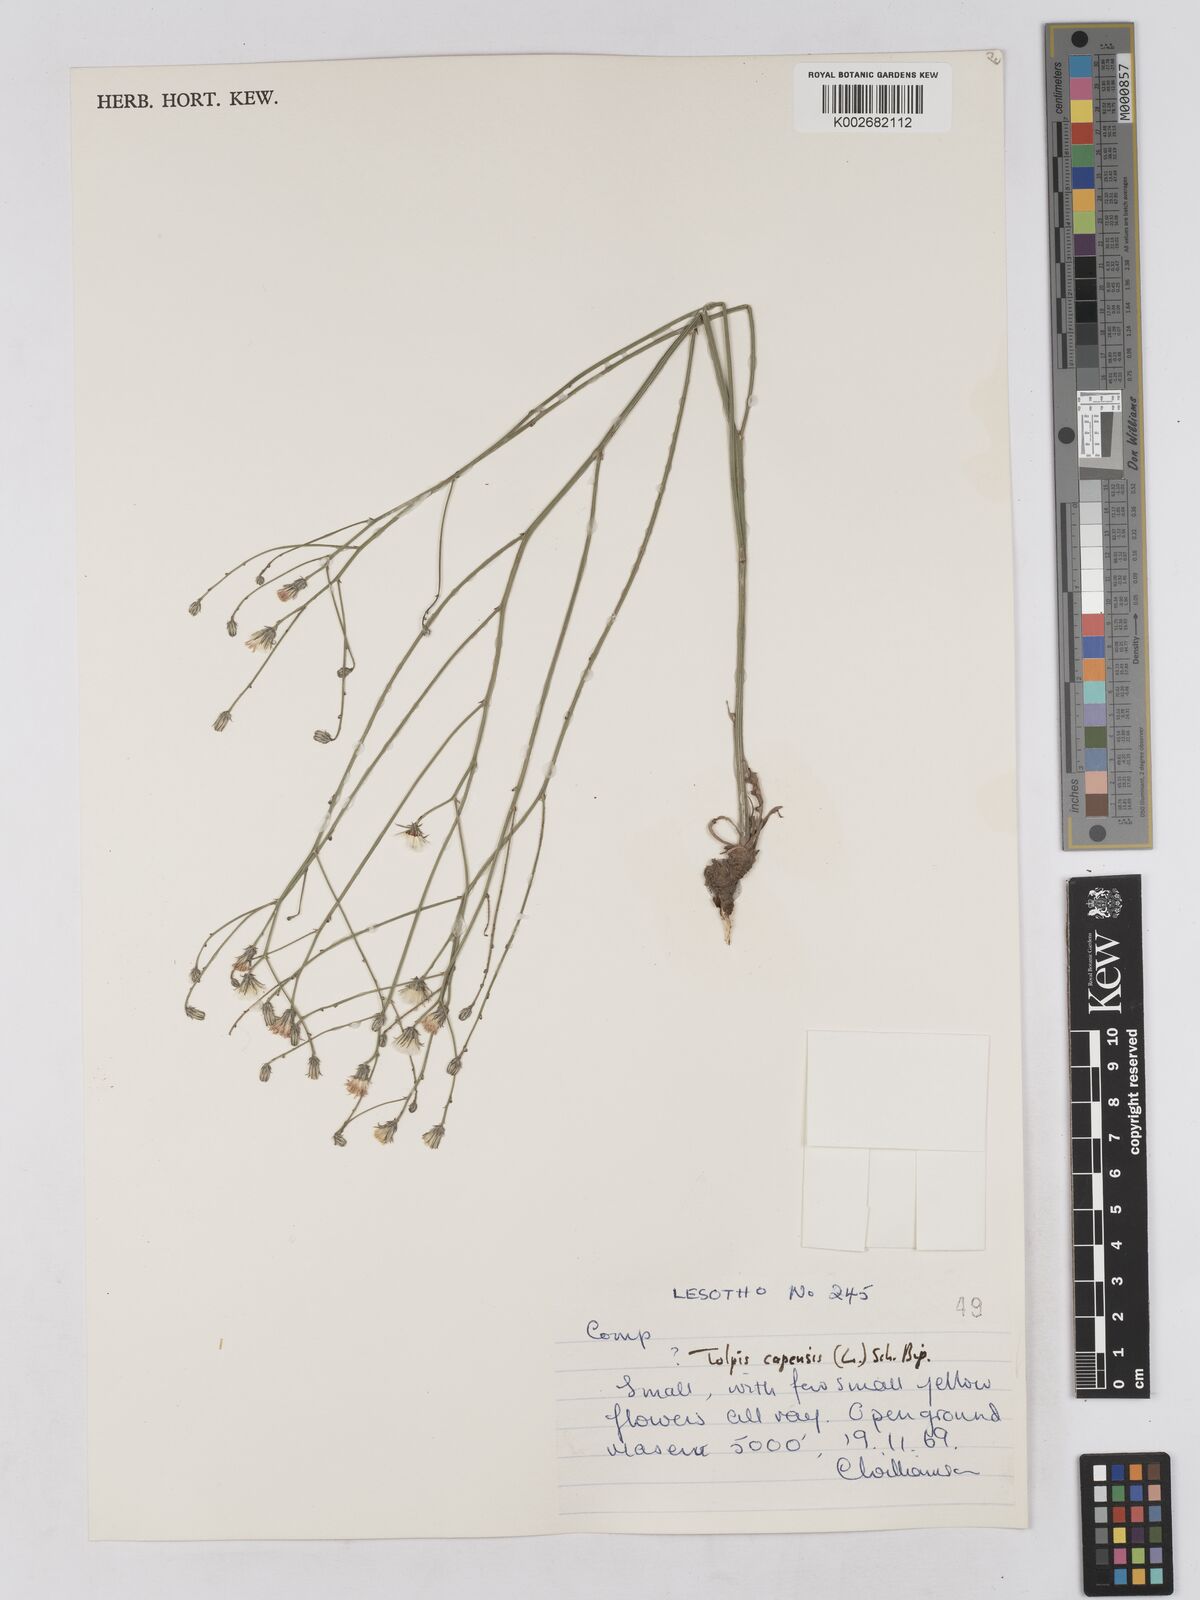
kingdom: Plantae
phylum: Tracheophyta
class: Magnoliopsida
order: Asterales
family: Asteraceae
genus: Tolpis
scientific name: Tolpis capensis
